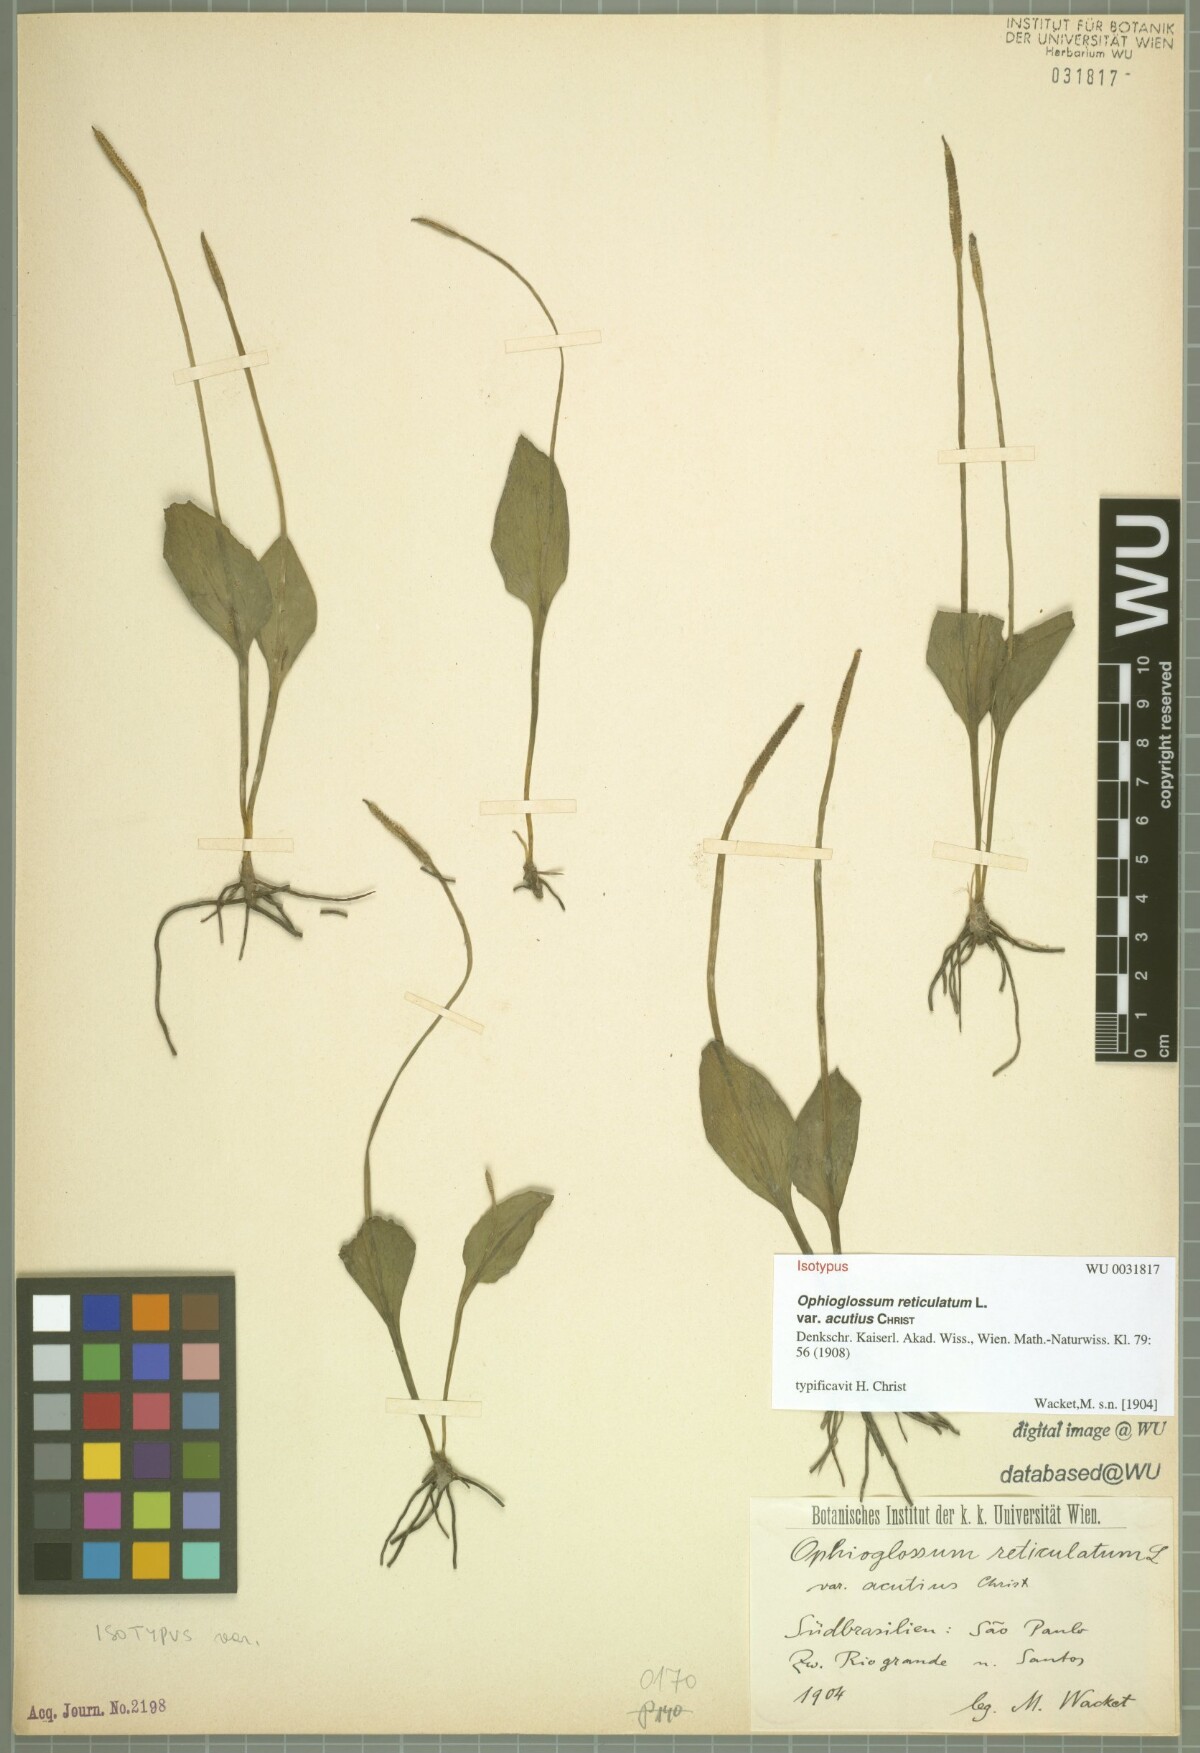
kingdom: Plantae
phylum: Tracheophyta
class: Polypodiopsida
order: Ophioglossales
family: Ophioglossaceae
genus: Ophioglossum
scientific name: Ophioglossum reticulatum
